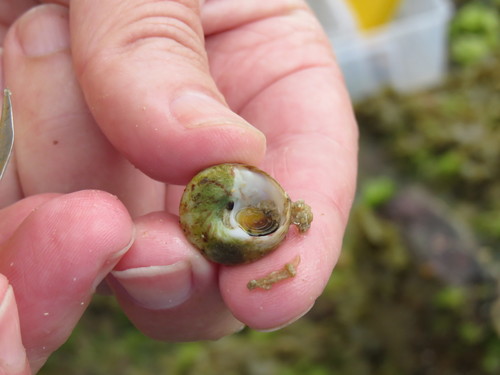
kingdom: Animalia
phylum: Mollusca
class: Gastropoda
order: Trochida
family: Trochidae
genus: Steromphala
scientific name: Steromphala umbilicalis
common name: Flat top shell
